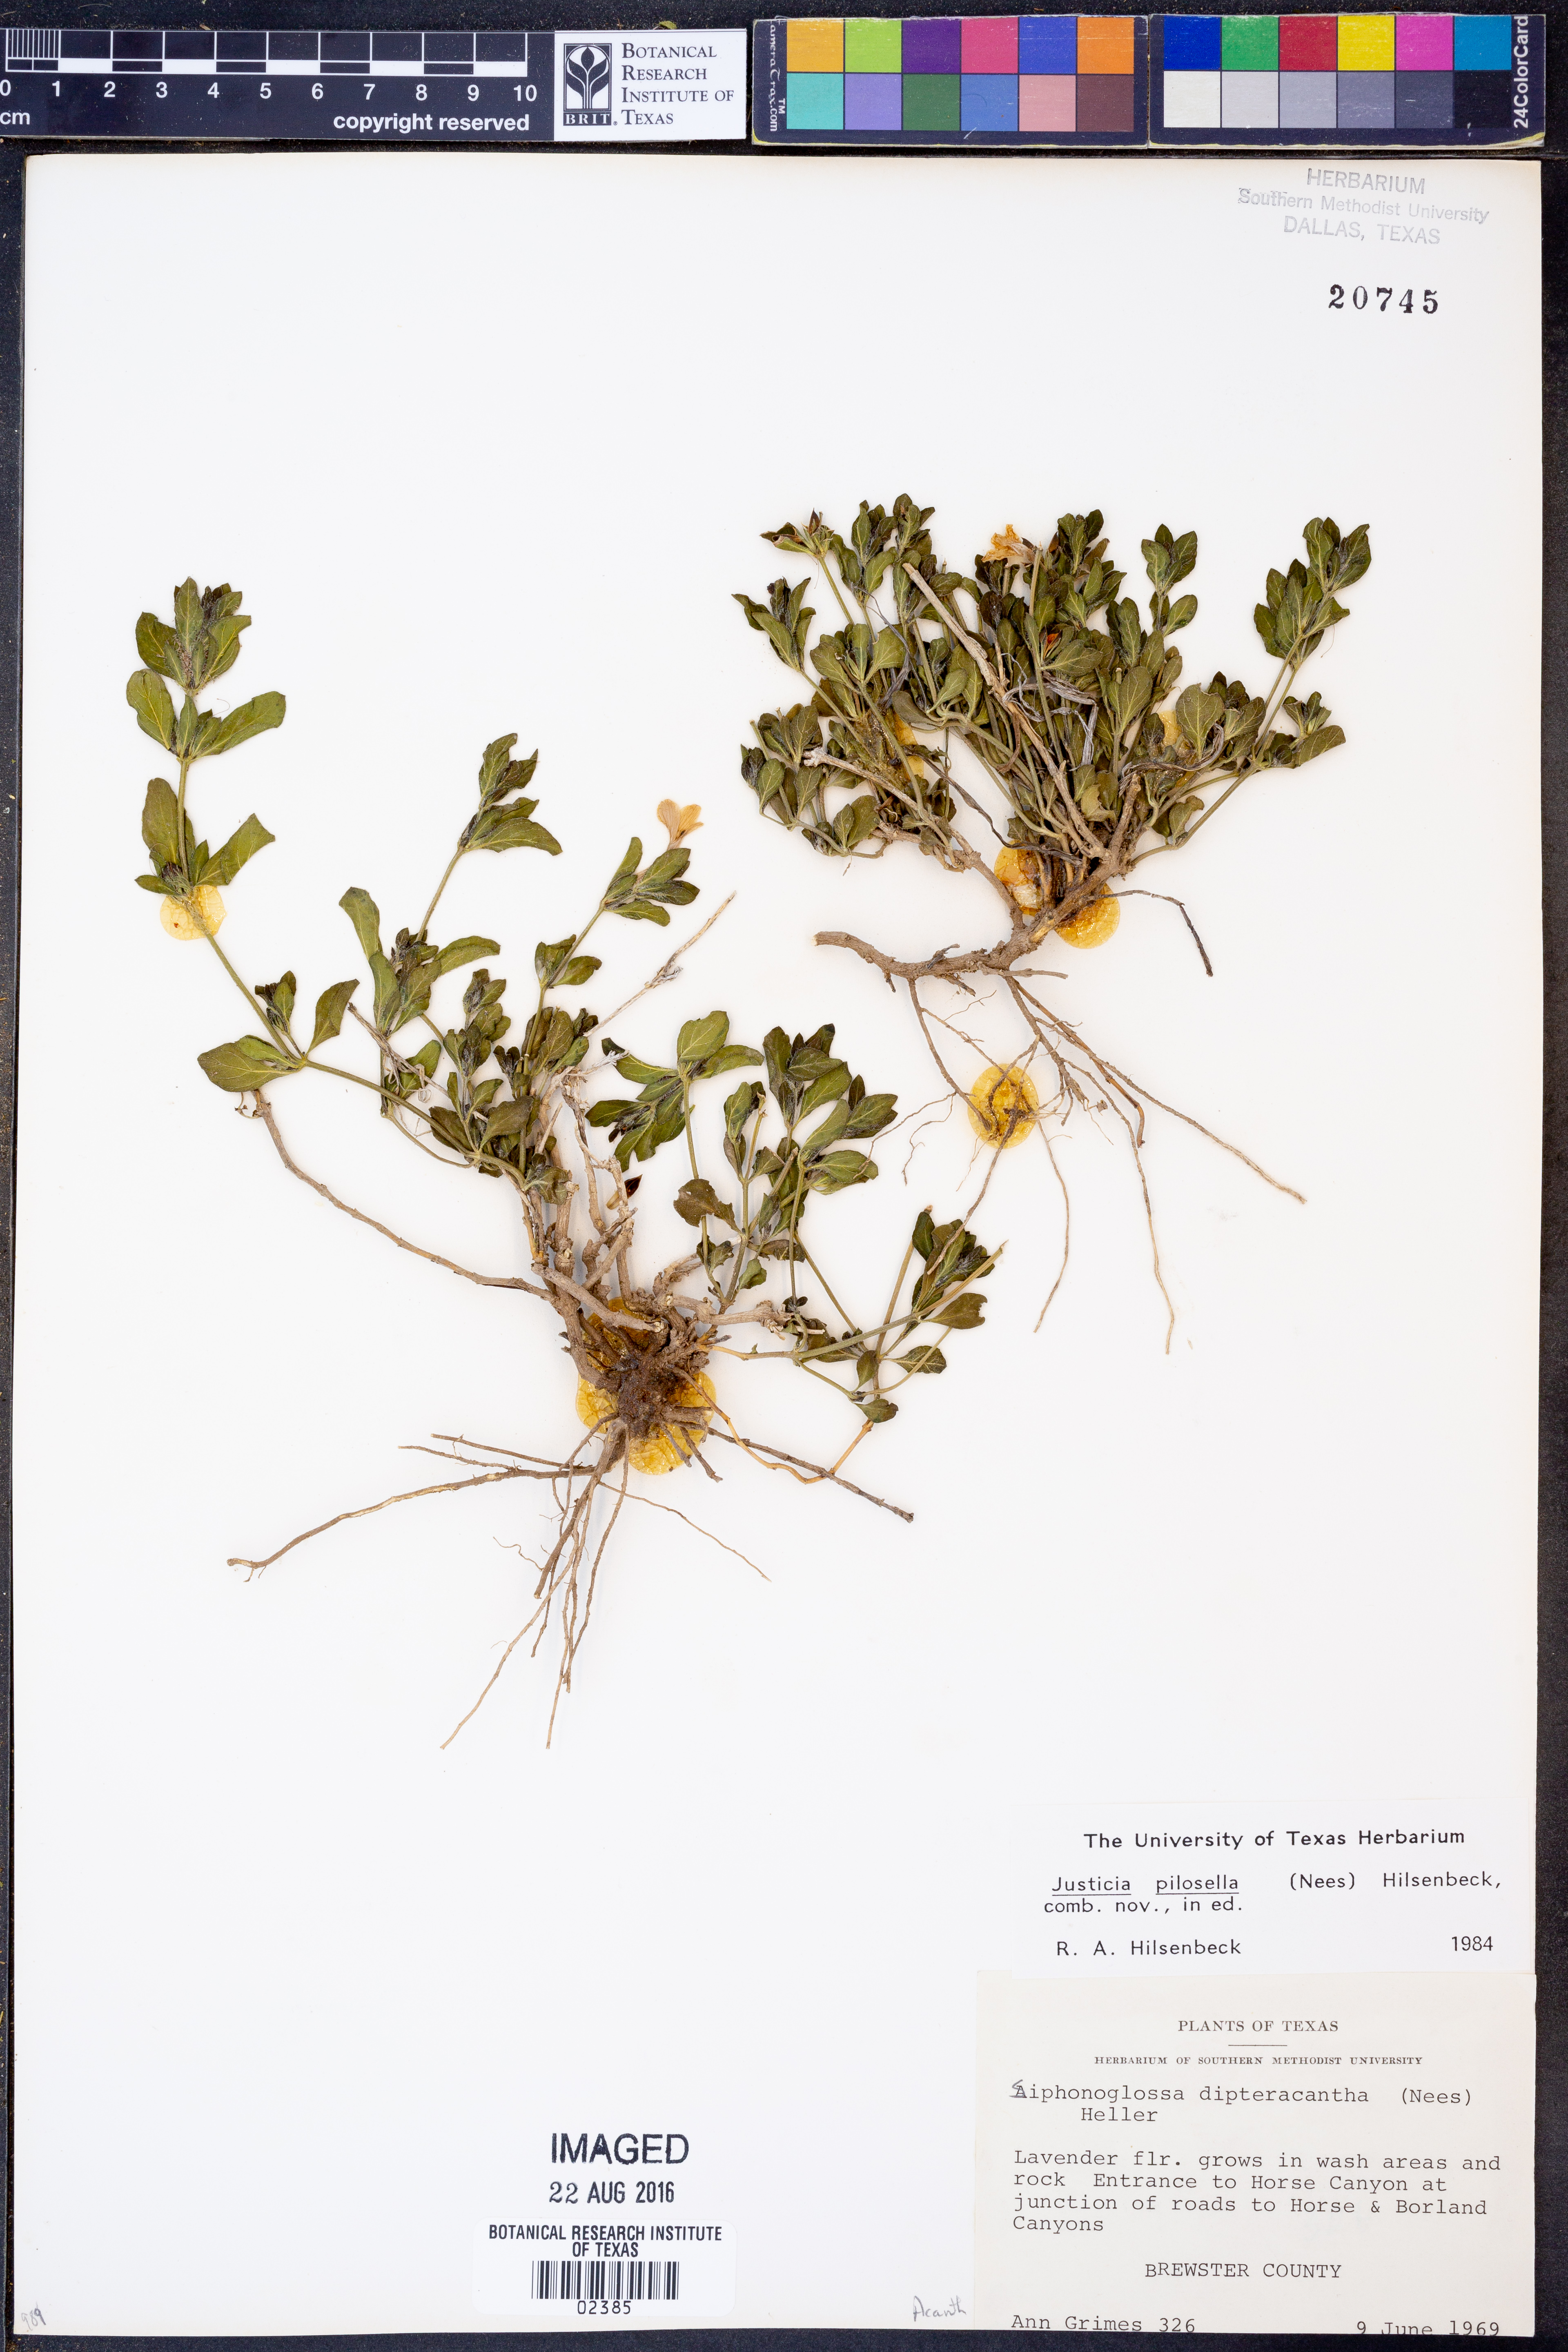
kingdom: Plantae
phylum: Tracheophyta
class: Magnoliopsida
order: Lamiales
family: Acanthaceae
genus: Justicia
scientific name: Justicia pilosella
